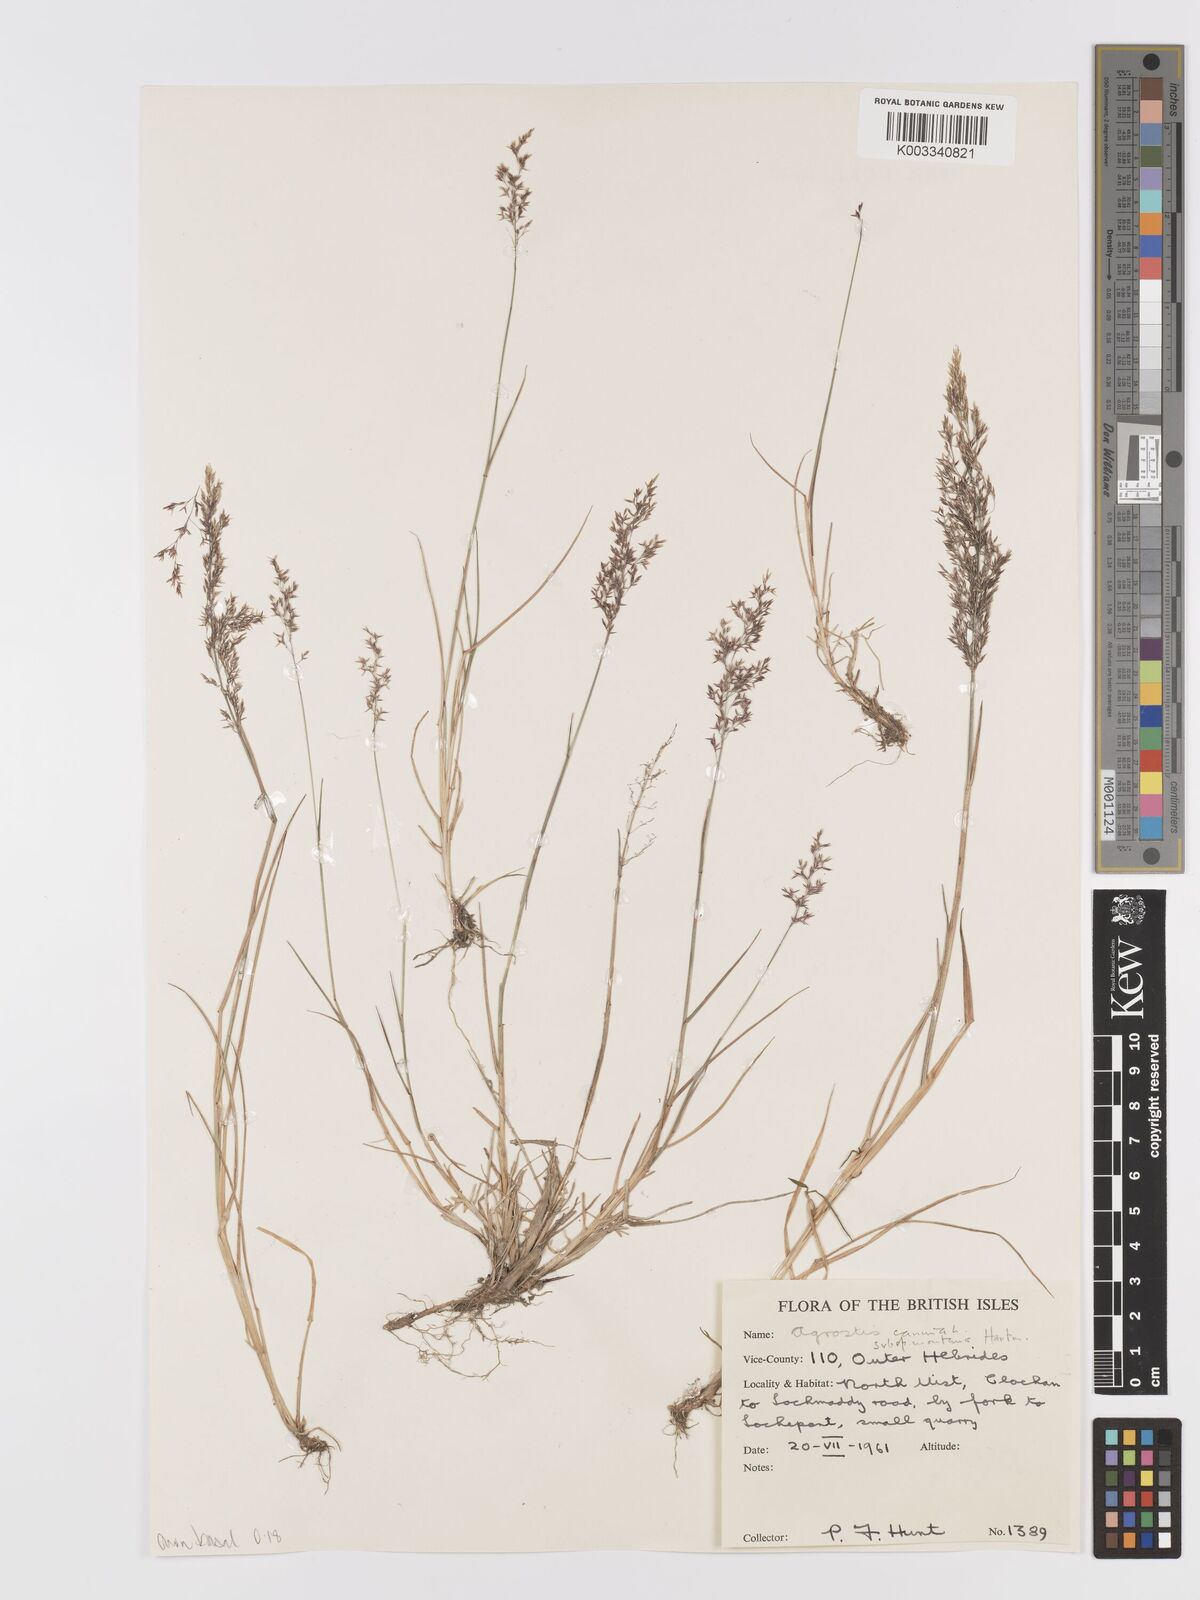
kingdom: Plantae
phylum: Tracheophyta
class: Liliopsida
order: Poales
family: Poaceae
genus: Agrostis
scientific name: Agrostis capillaris
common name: Colonial bentgrass
